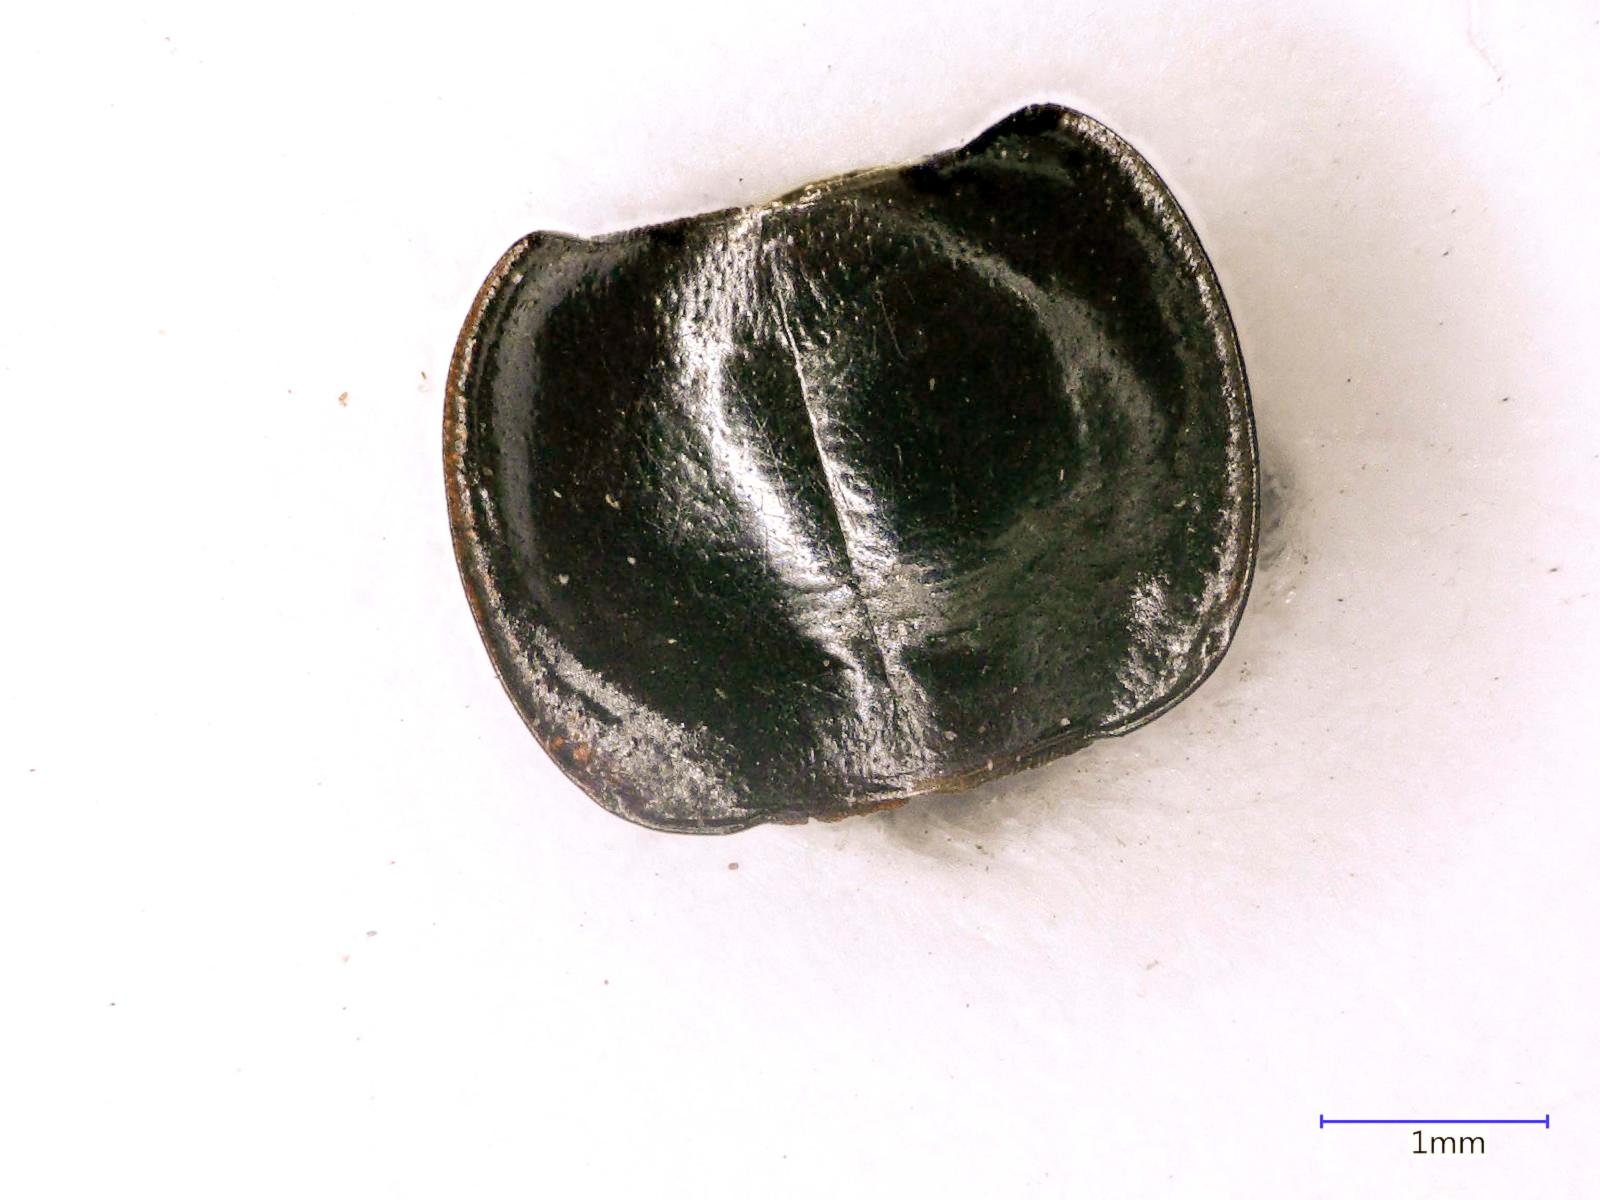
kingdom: Animalia
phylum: Arthropoda
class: Insecta
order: Coleoptera
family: Carabidae
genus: Tanystoma
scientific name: Tanystoma maculicolle
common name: Tule beetle
